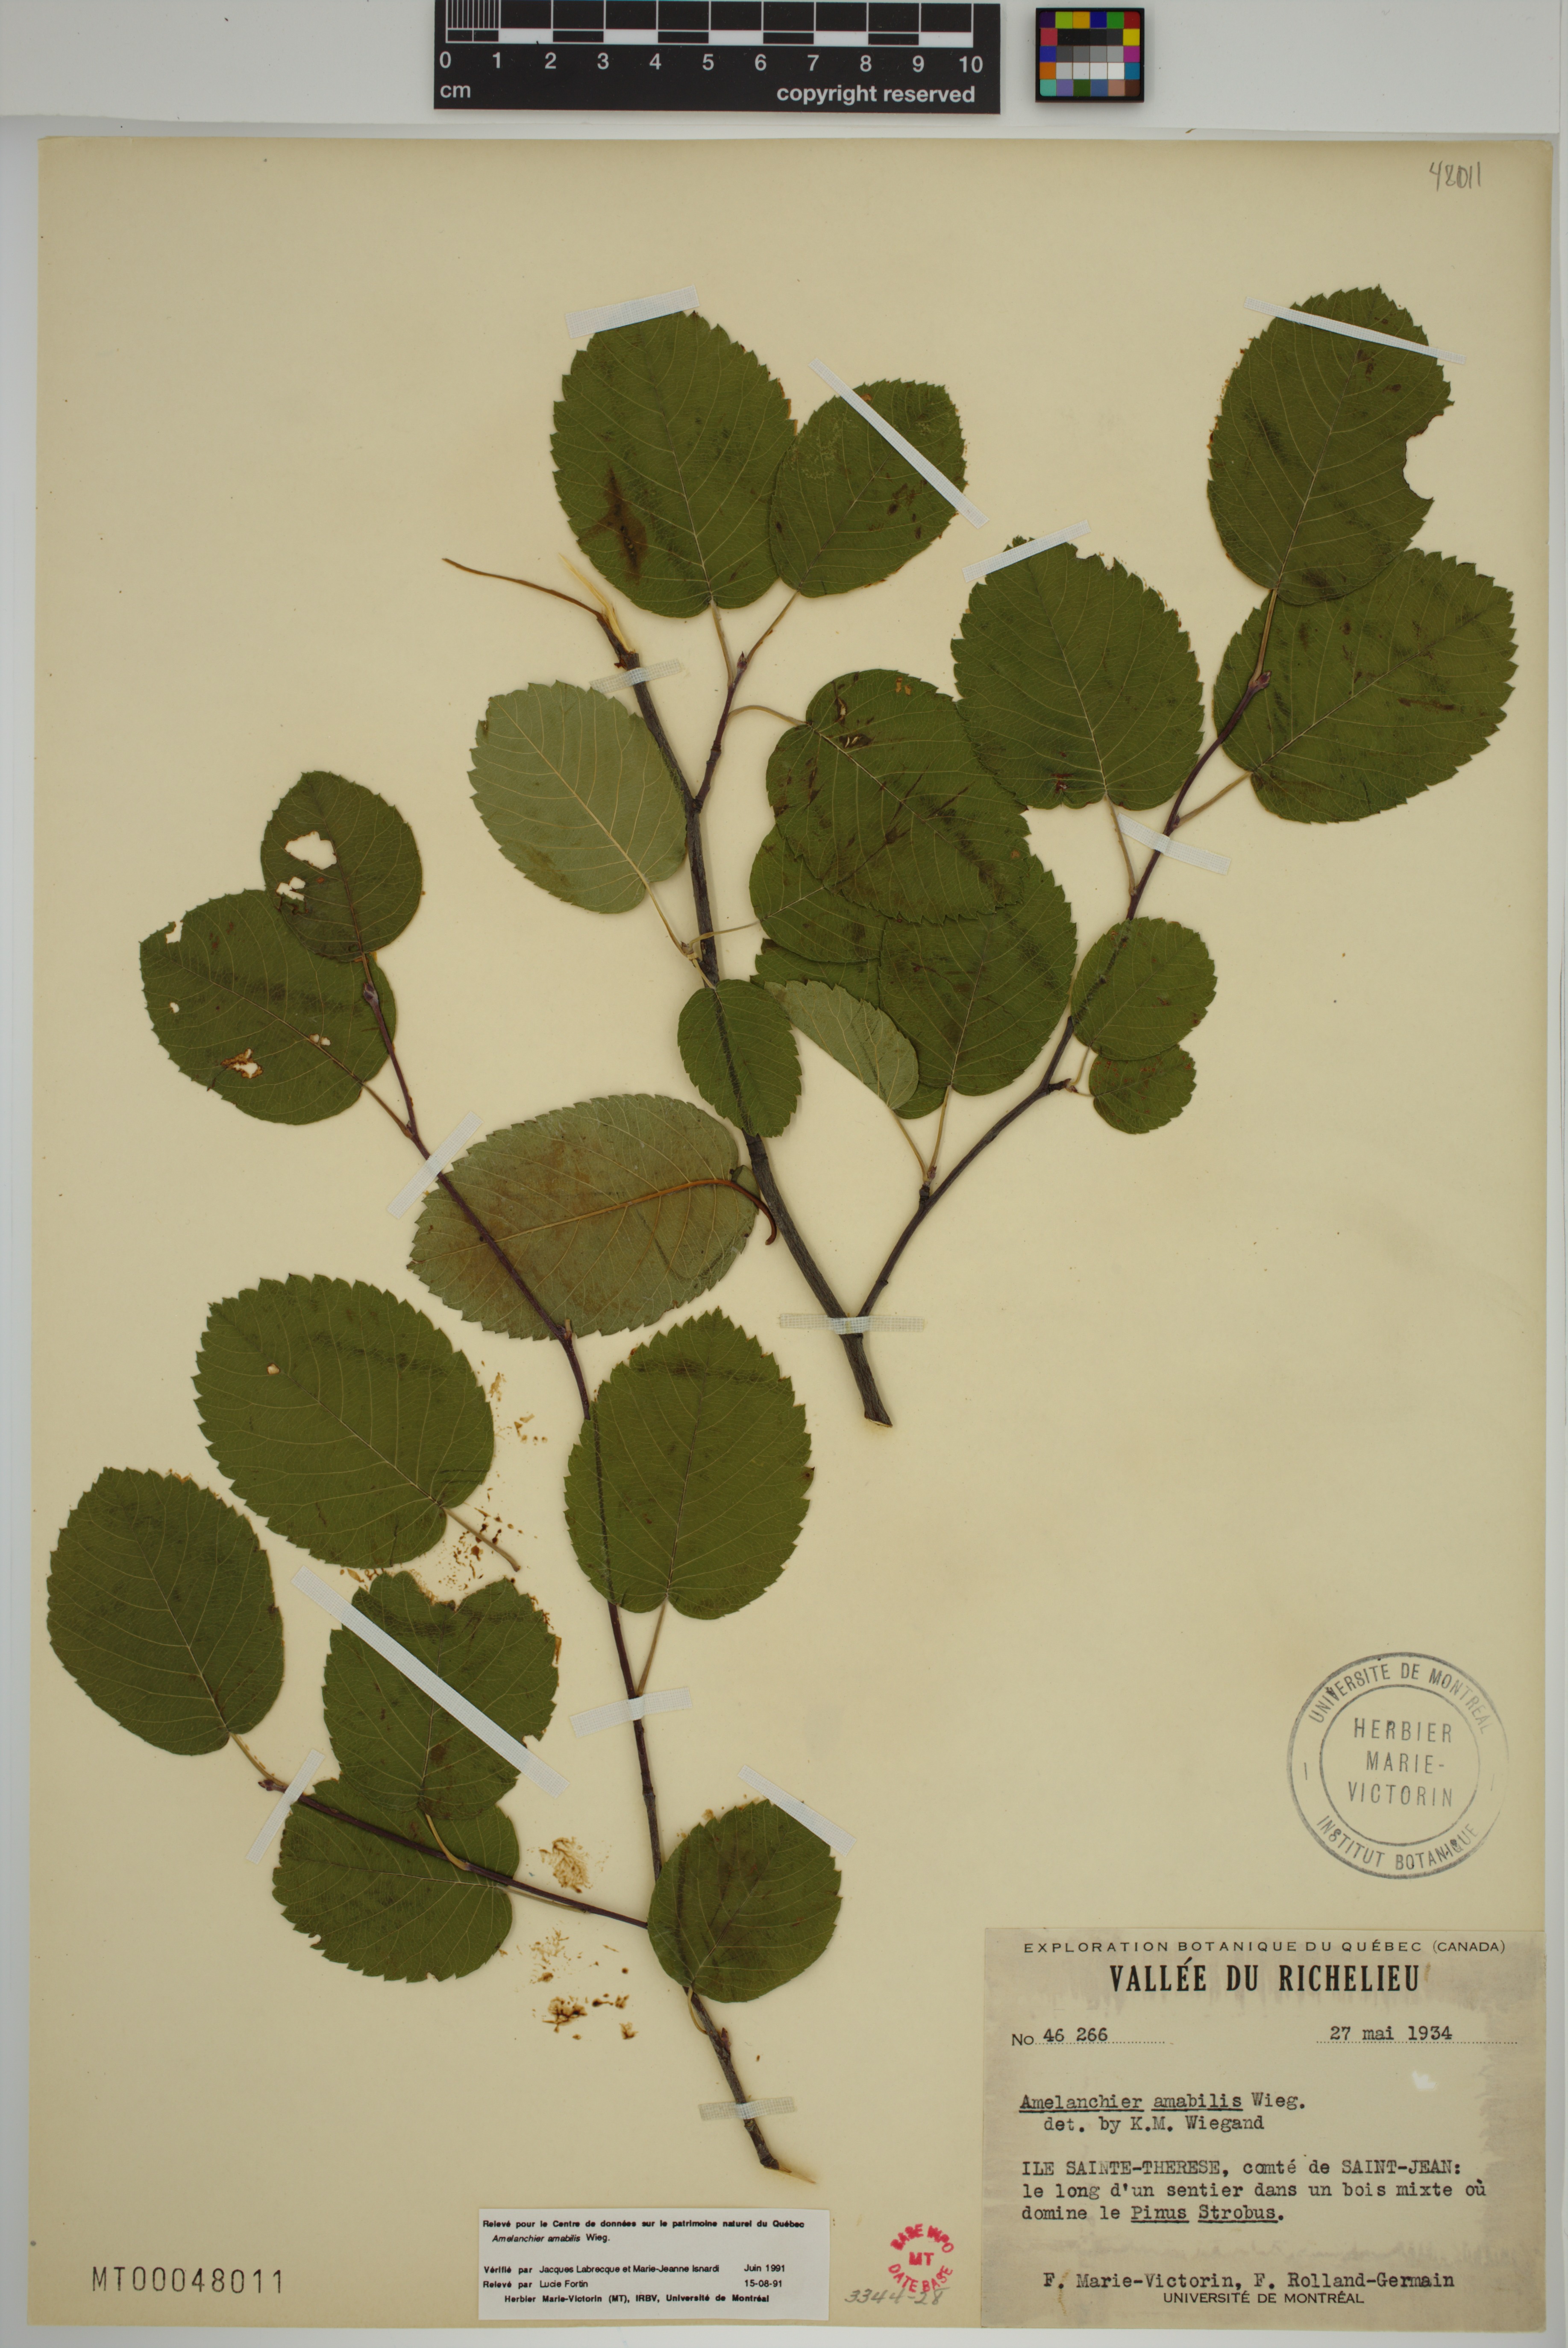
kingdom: Plantae
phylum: Tracheophyta
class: Magnoliopsida
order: Rosales
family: Rosaceae
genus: Amelanchier
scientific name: Amelanchier sanguinea
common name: Huron serviceberry
